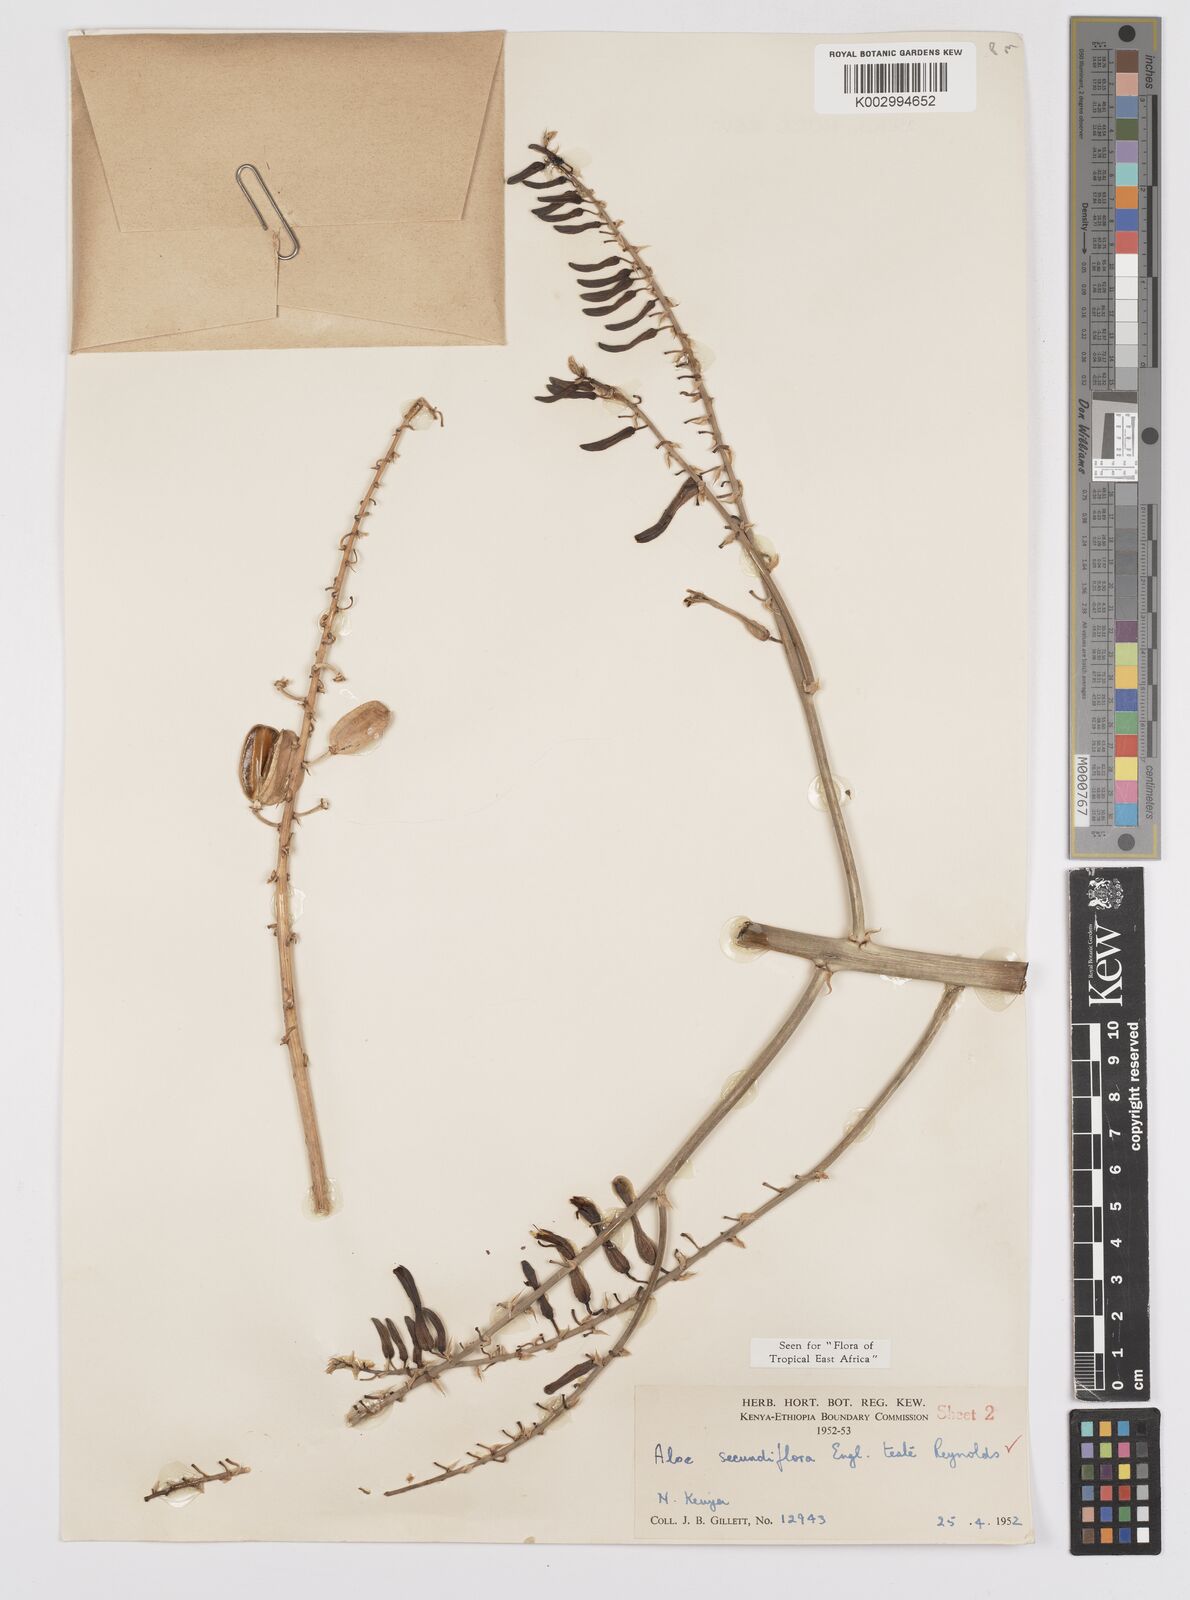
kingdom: Plantae
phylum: Tracheophyta
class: Liliopsida
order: Asparagales
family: Asphodelaceae
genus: Aloe
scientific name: Aloe secundiflora
